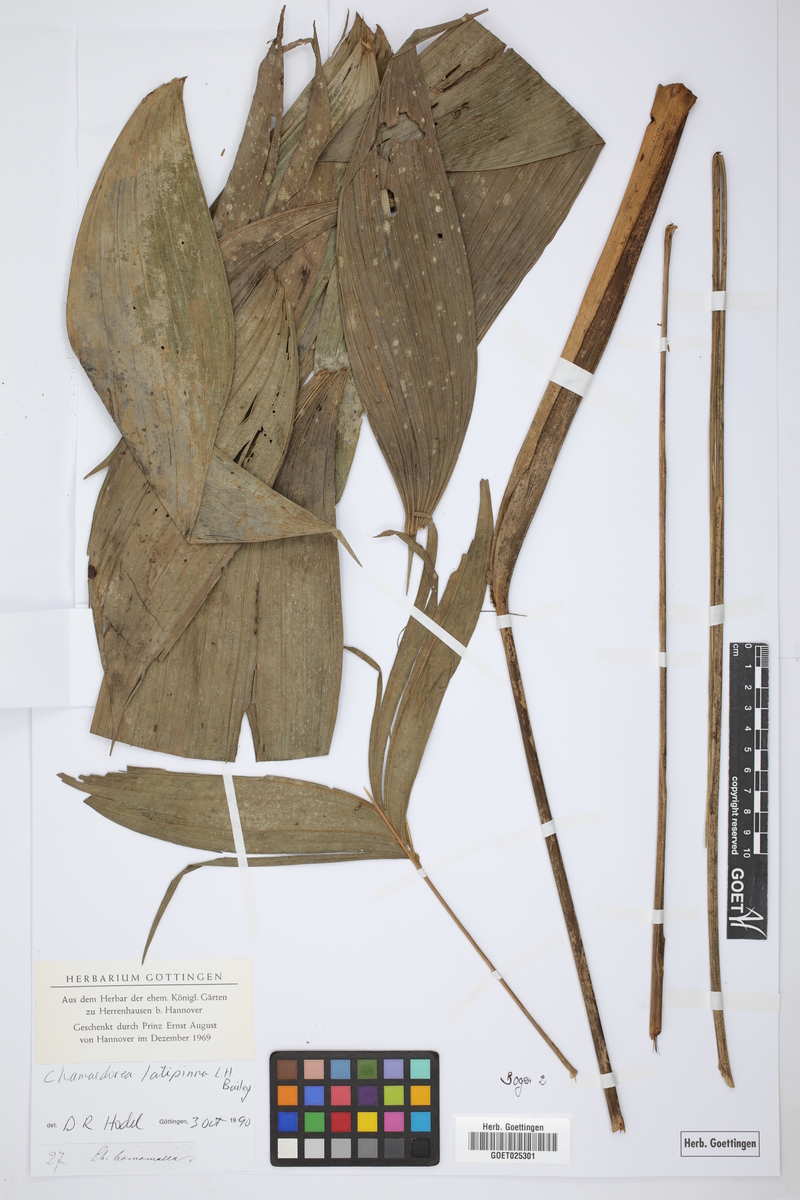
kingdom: Plantae
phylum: Tracheophyta
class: Liliopsida
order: Arecales
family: Arecaceae
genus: Chamaedorea
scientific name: Chamaedorea warscewiczii
